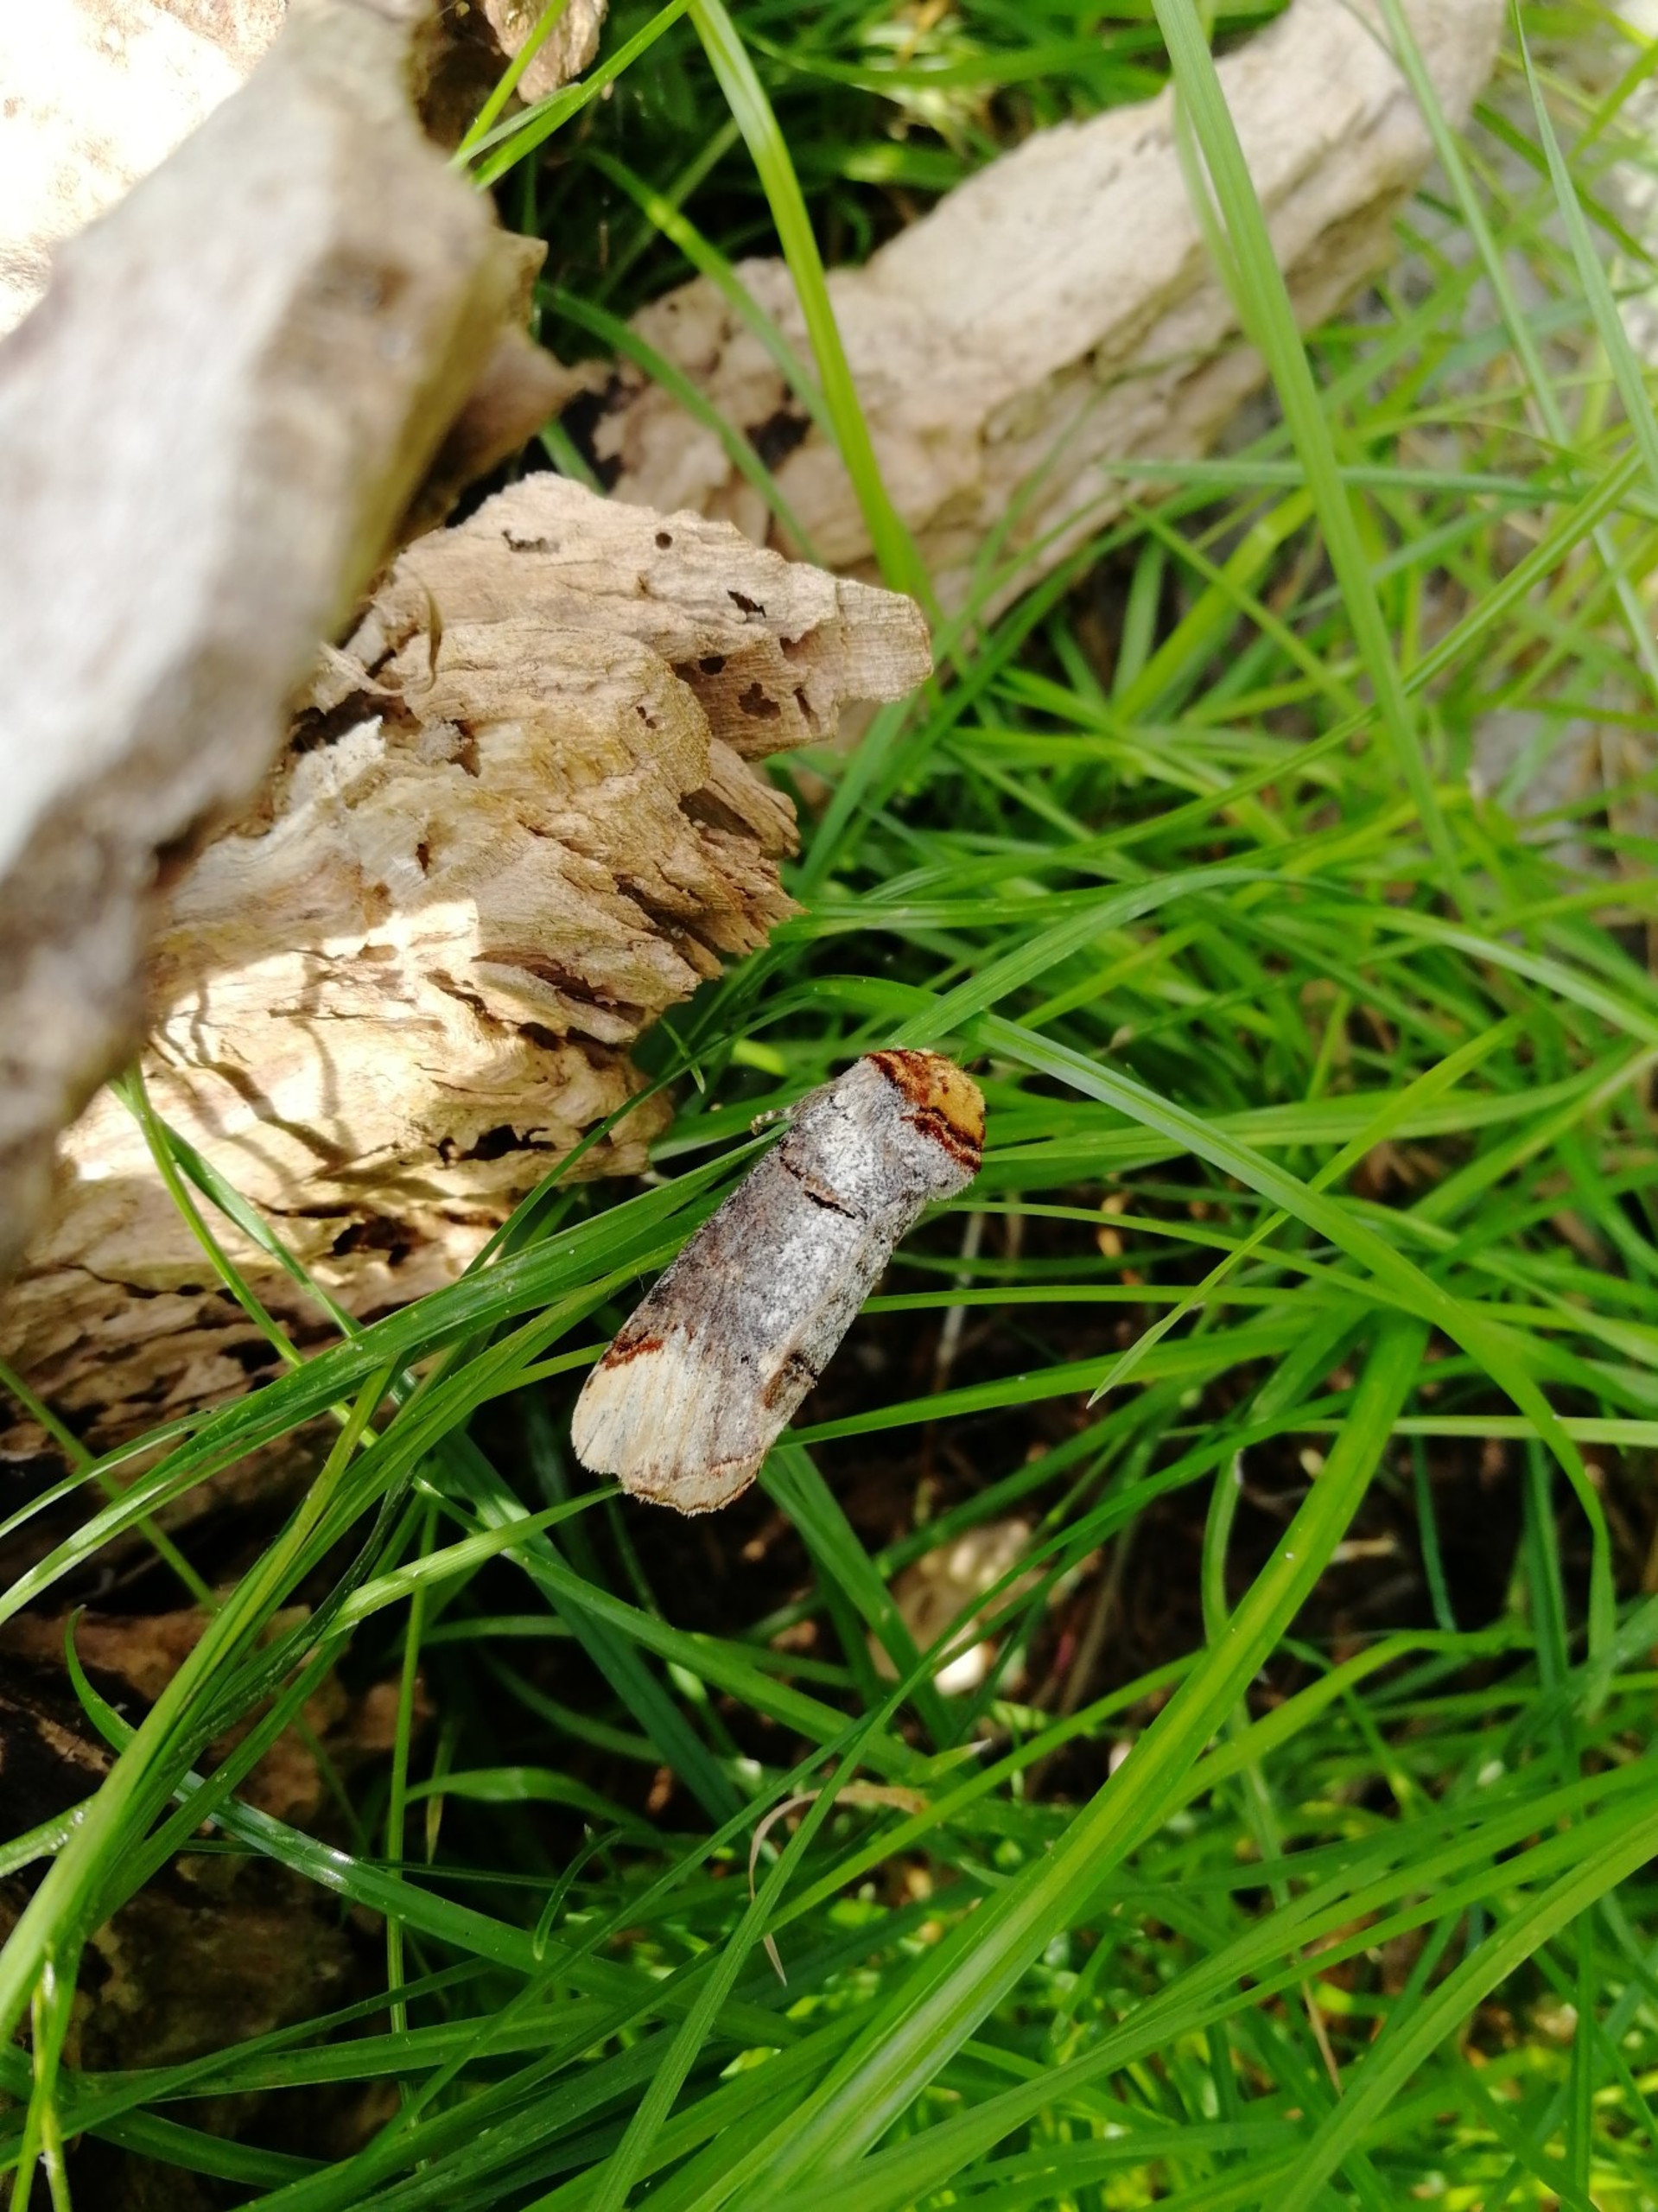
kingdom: Animalia
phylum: Arthropoda
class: Insecta
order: Lepidoptera
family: Notodontidae
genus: Phalera
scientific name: Phalera bucephala
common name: Måneplet
